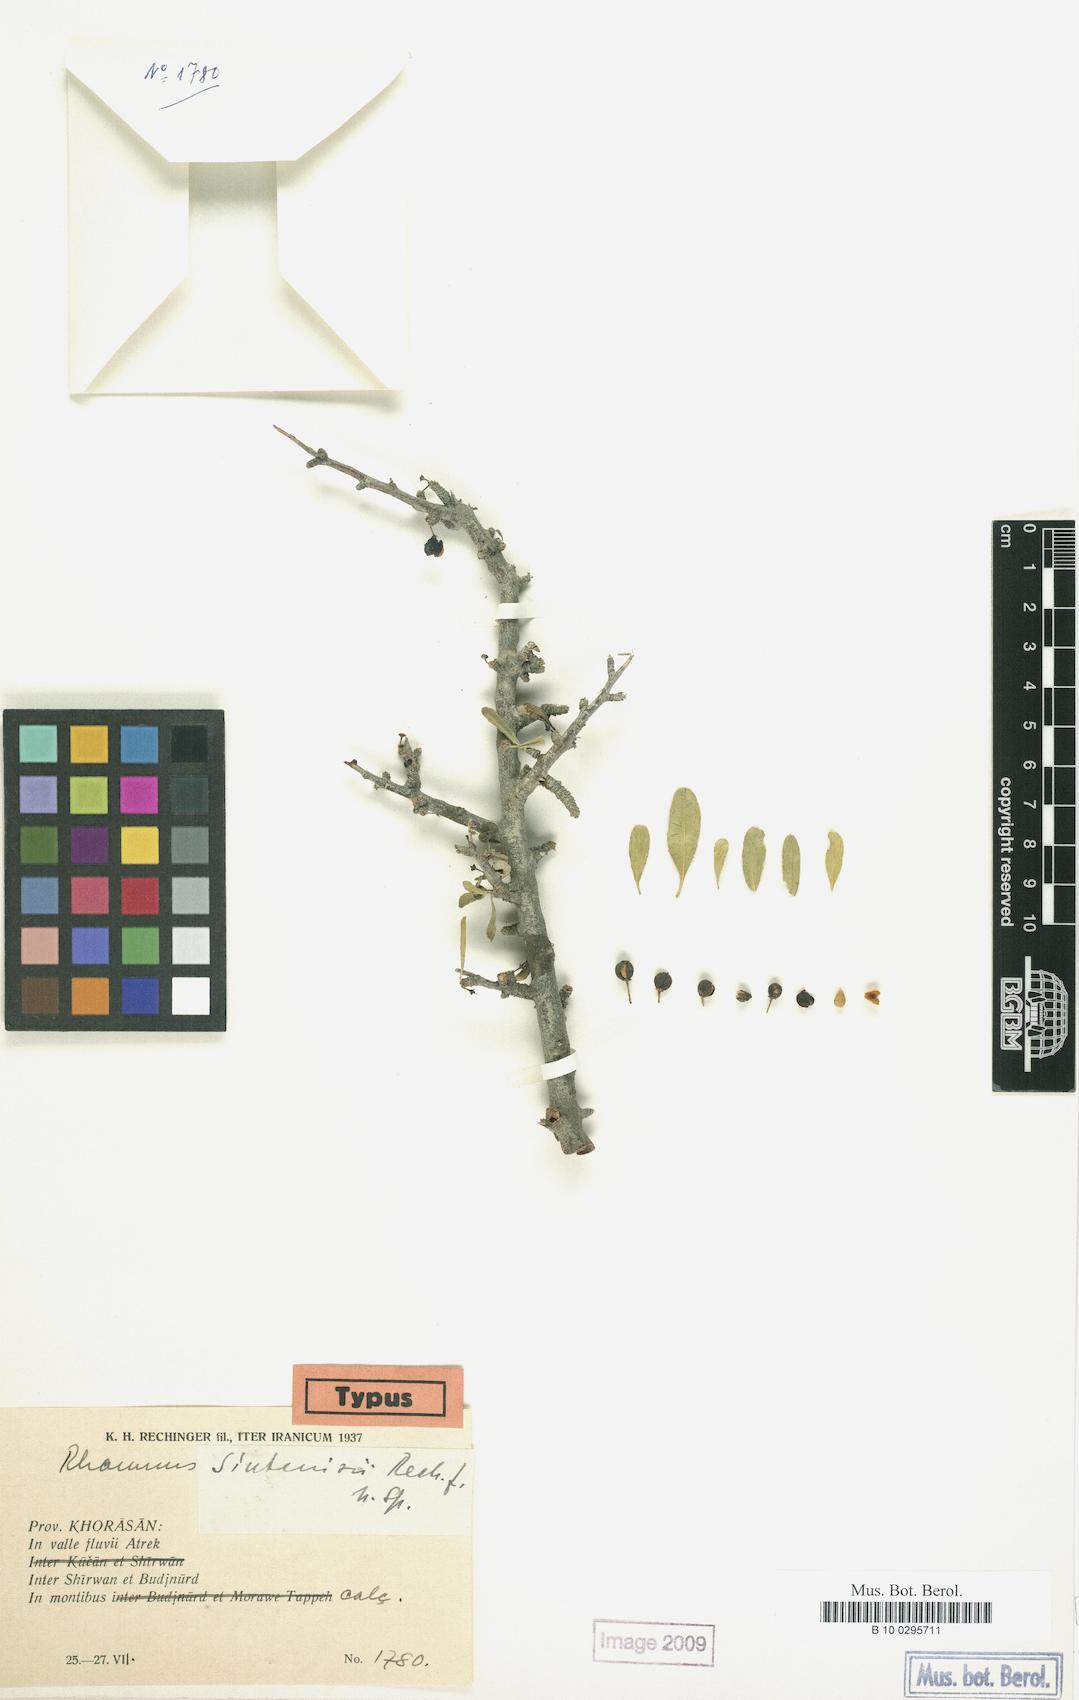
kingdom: Plantae
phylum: Tracheophyta
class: Magnoliopsida
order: Rosales
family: Rhamnaceae
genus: Rhamnus
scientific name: Rhamnus erythroxyloides
